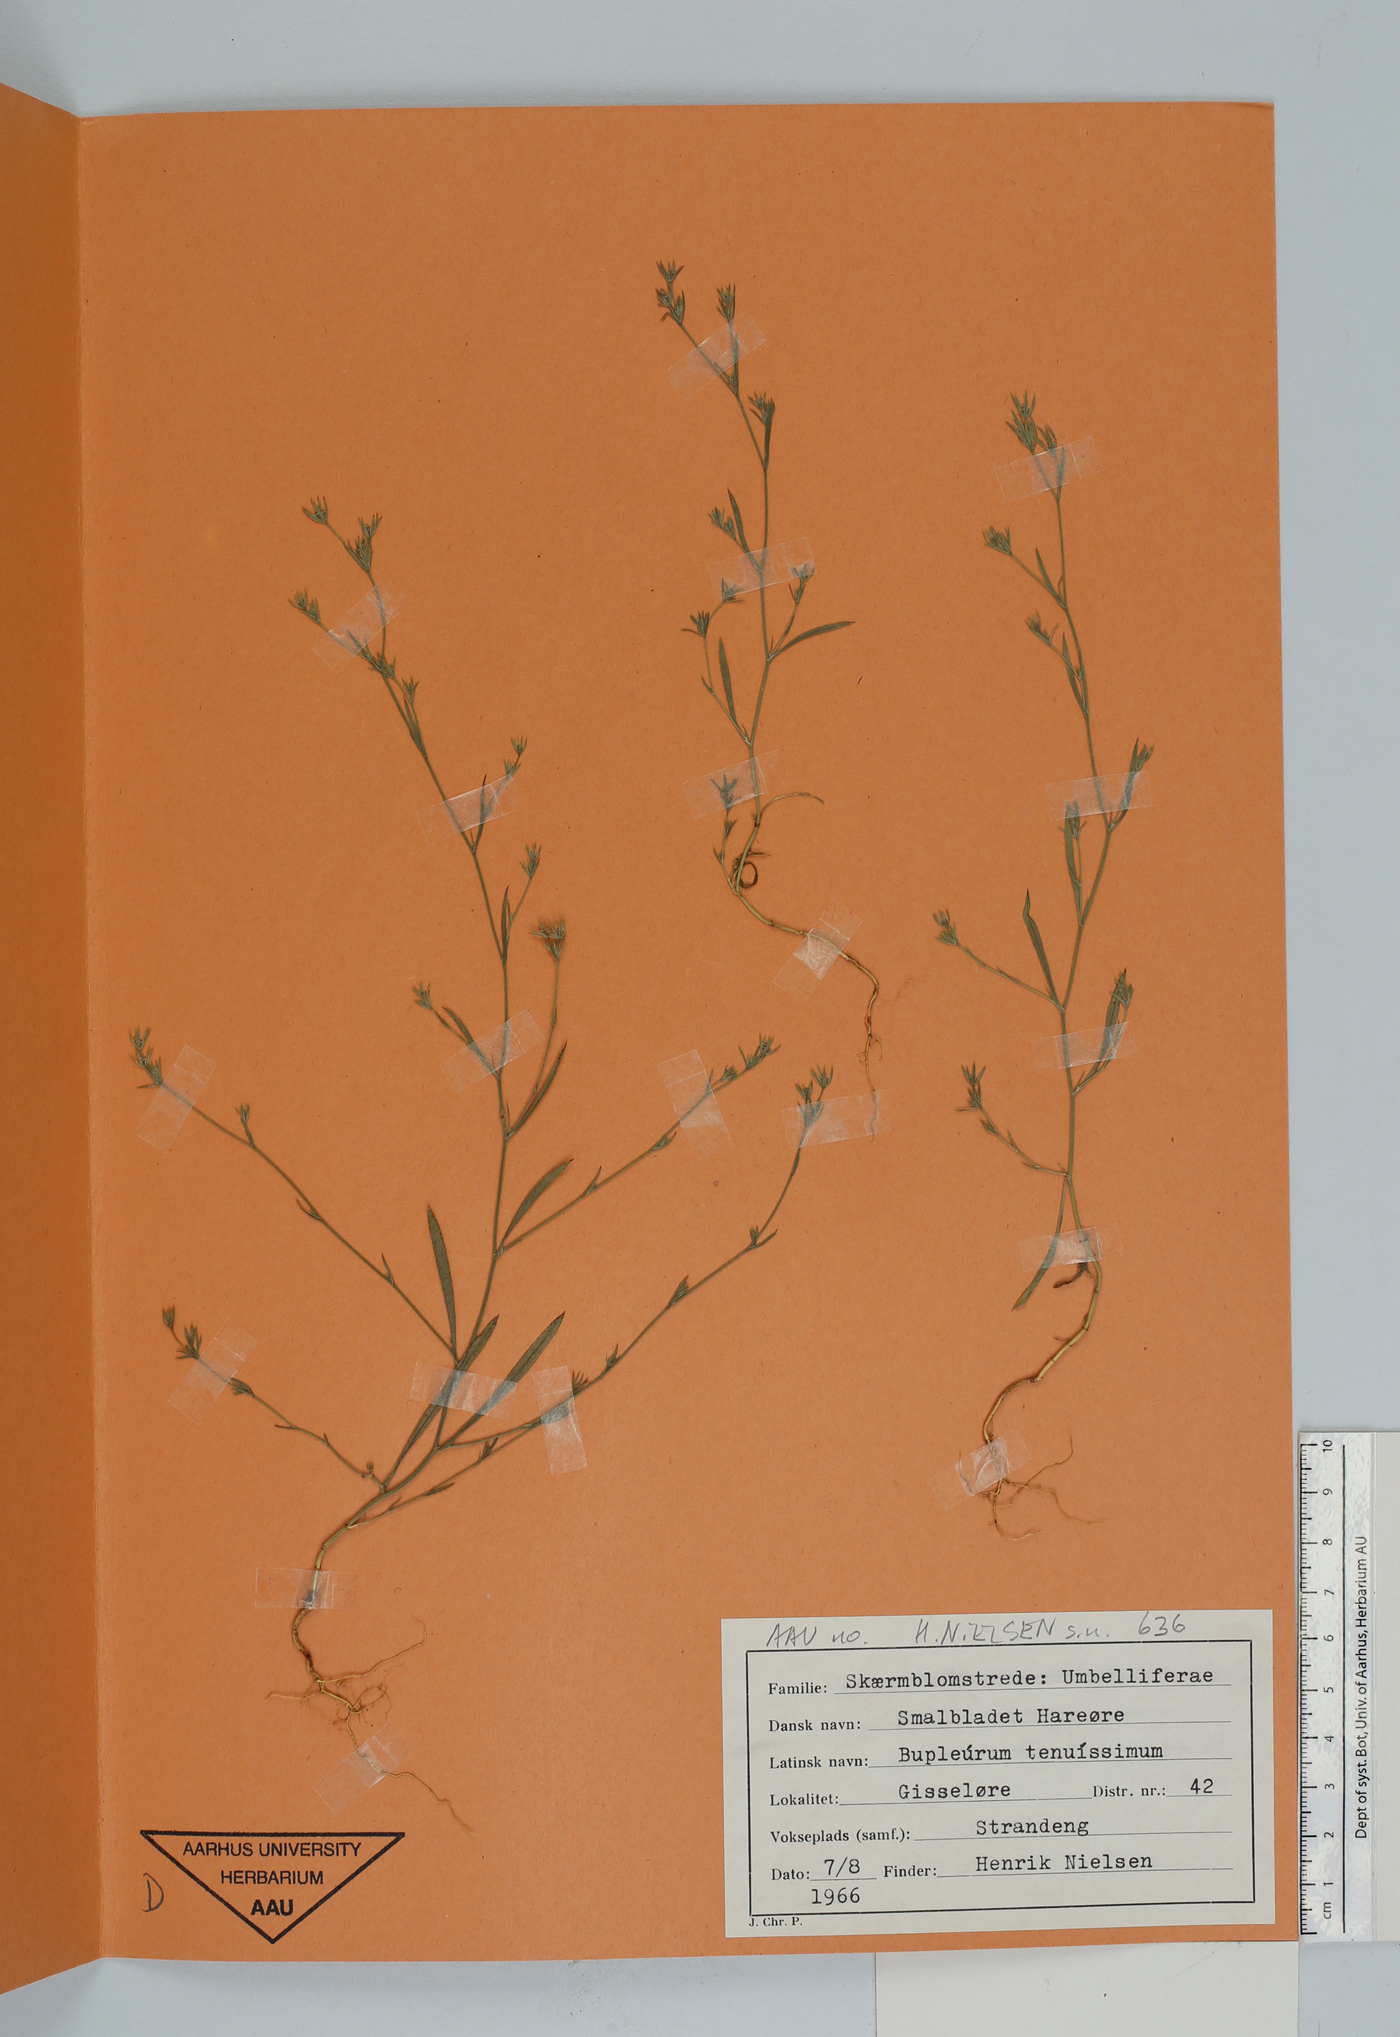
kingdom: Plantae
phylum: Tracheophyta
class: Magnoliopsida
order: Apiales
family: Apiaceae
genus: Bupleurum
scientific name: Bupleurum tenuissimum
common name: Slender hare's-ear
